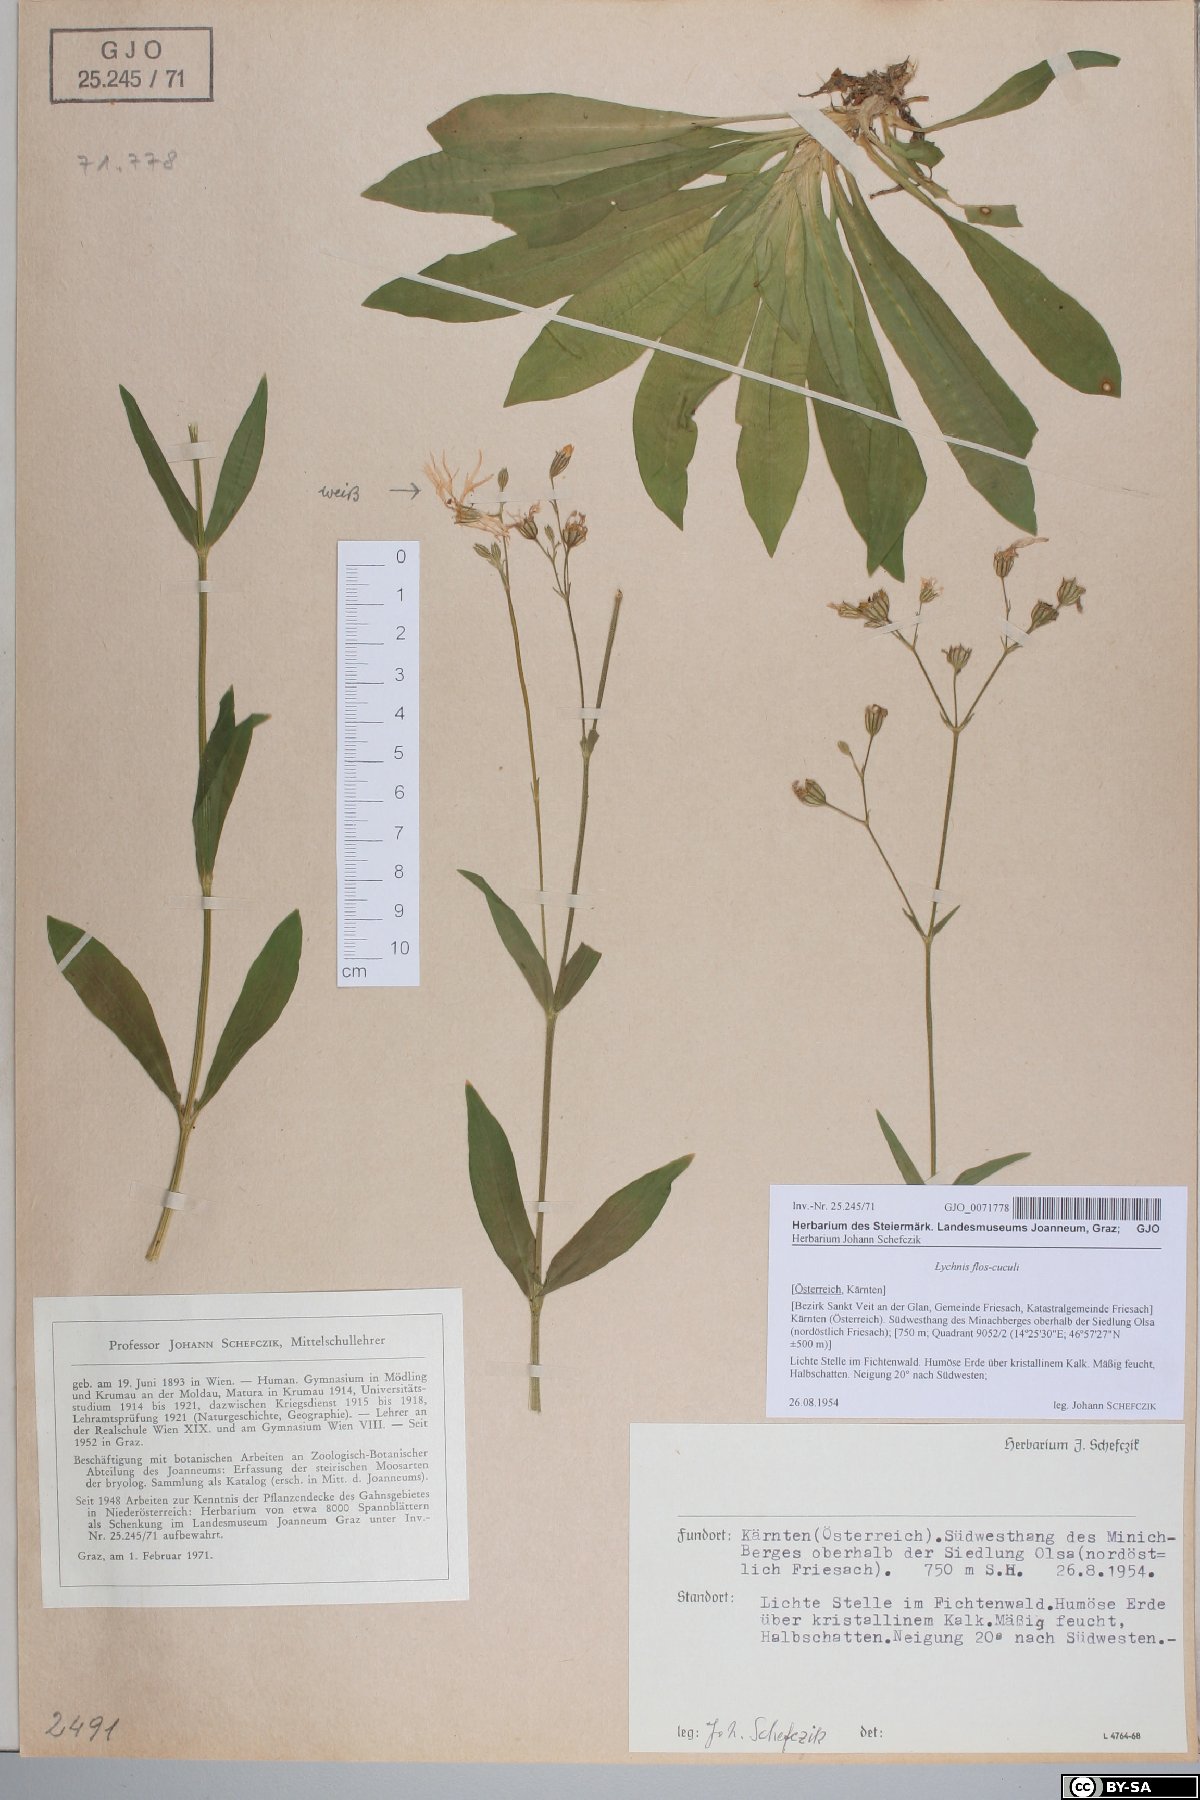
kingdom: Plantae
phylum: Tracheophyta
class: Magnoliopsida
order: Caryophyllales
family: Caryophyllaceae
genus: Silene
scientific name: Silene flos-cuculi
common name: Ragged-robin
